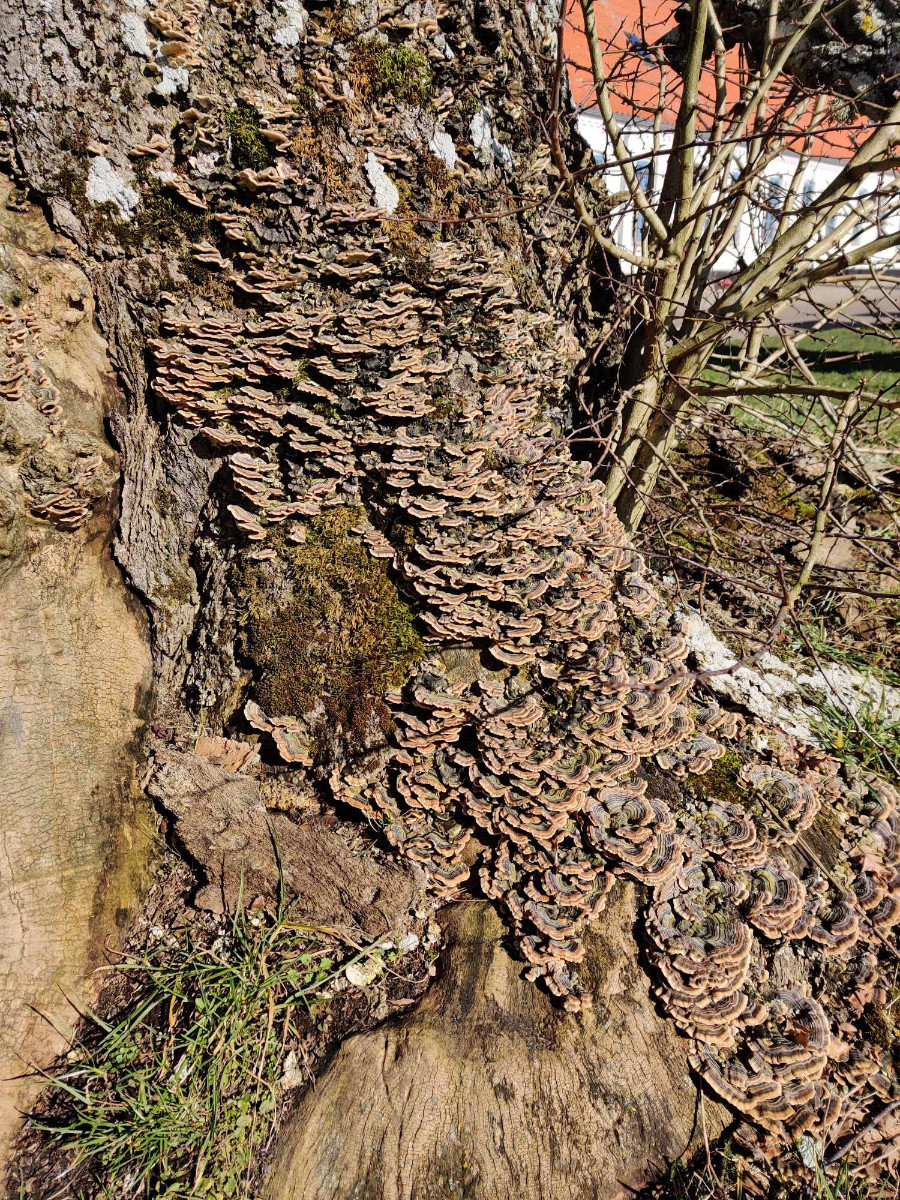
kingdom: Fungi
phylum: Basidiomycota
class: Agaricomycetes
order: Polyporales
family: Polyporaceae
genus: Trametes
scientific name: Trametes versicolor
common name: broget læderporesvamp
